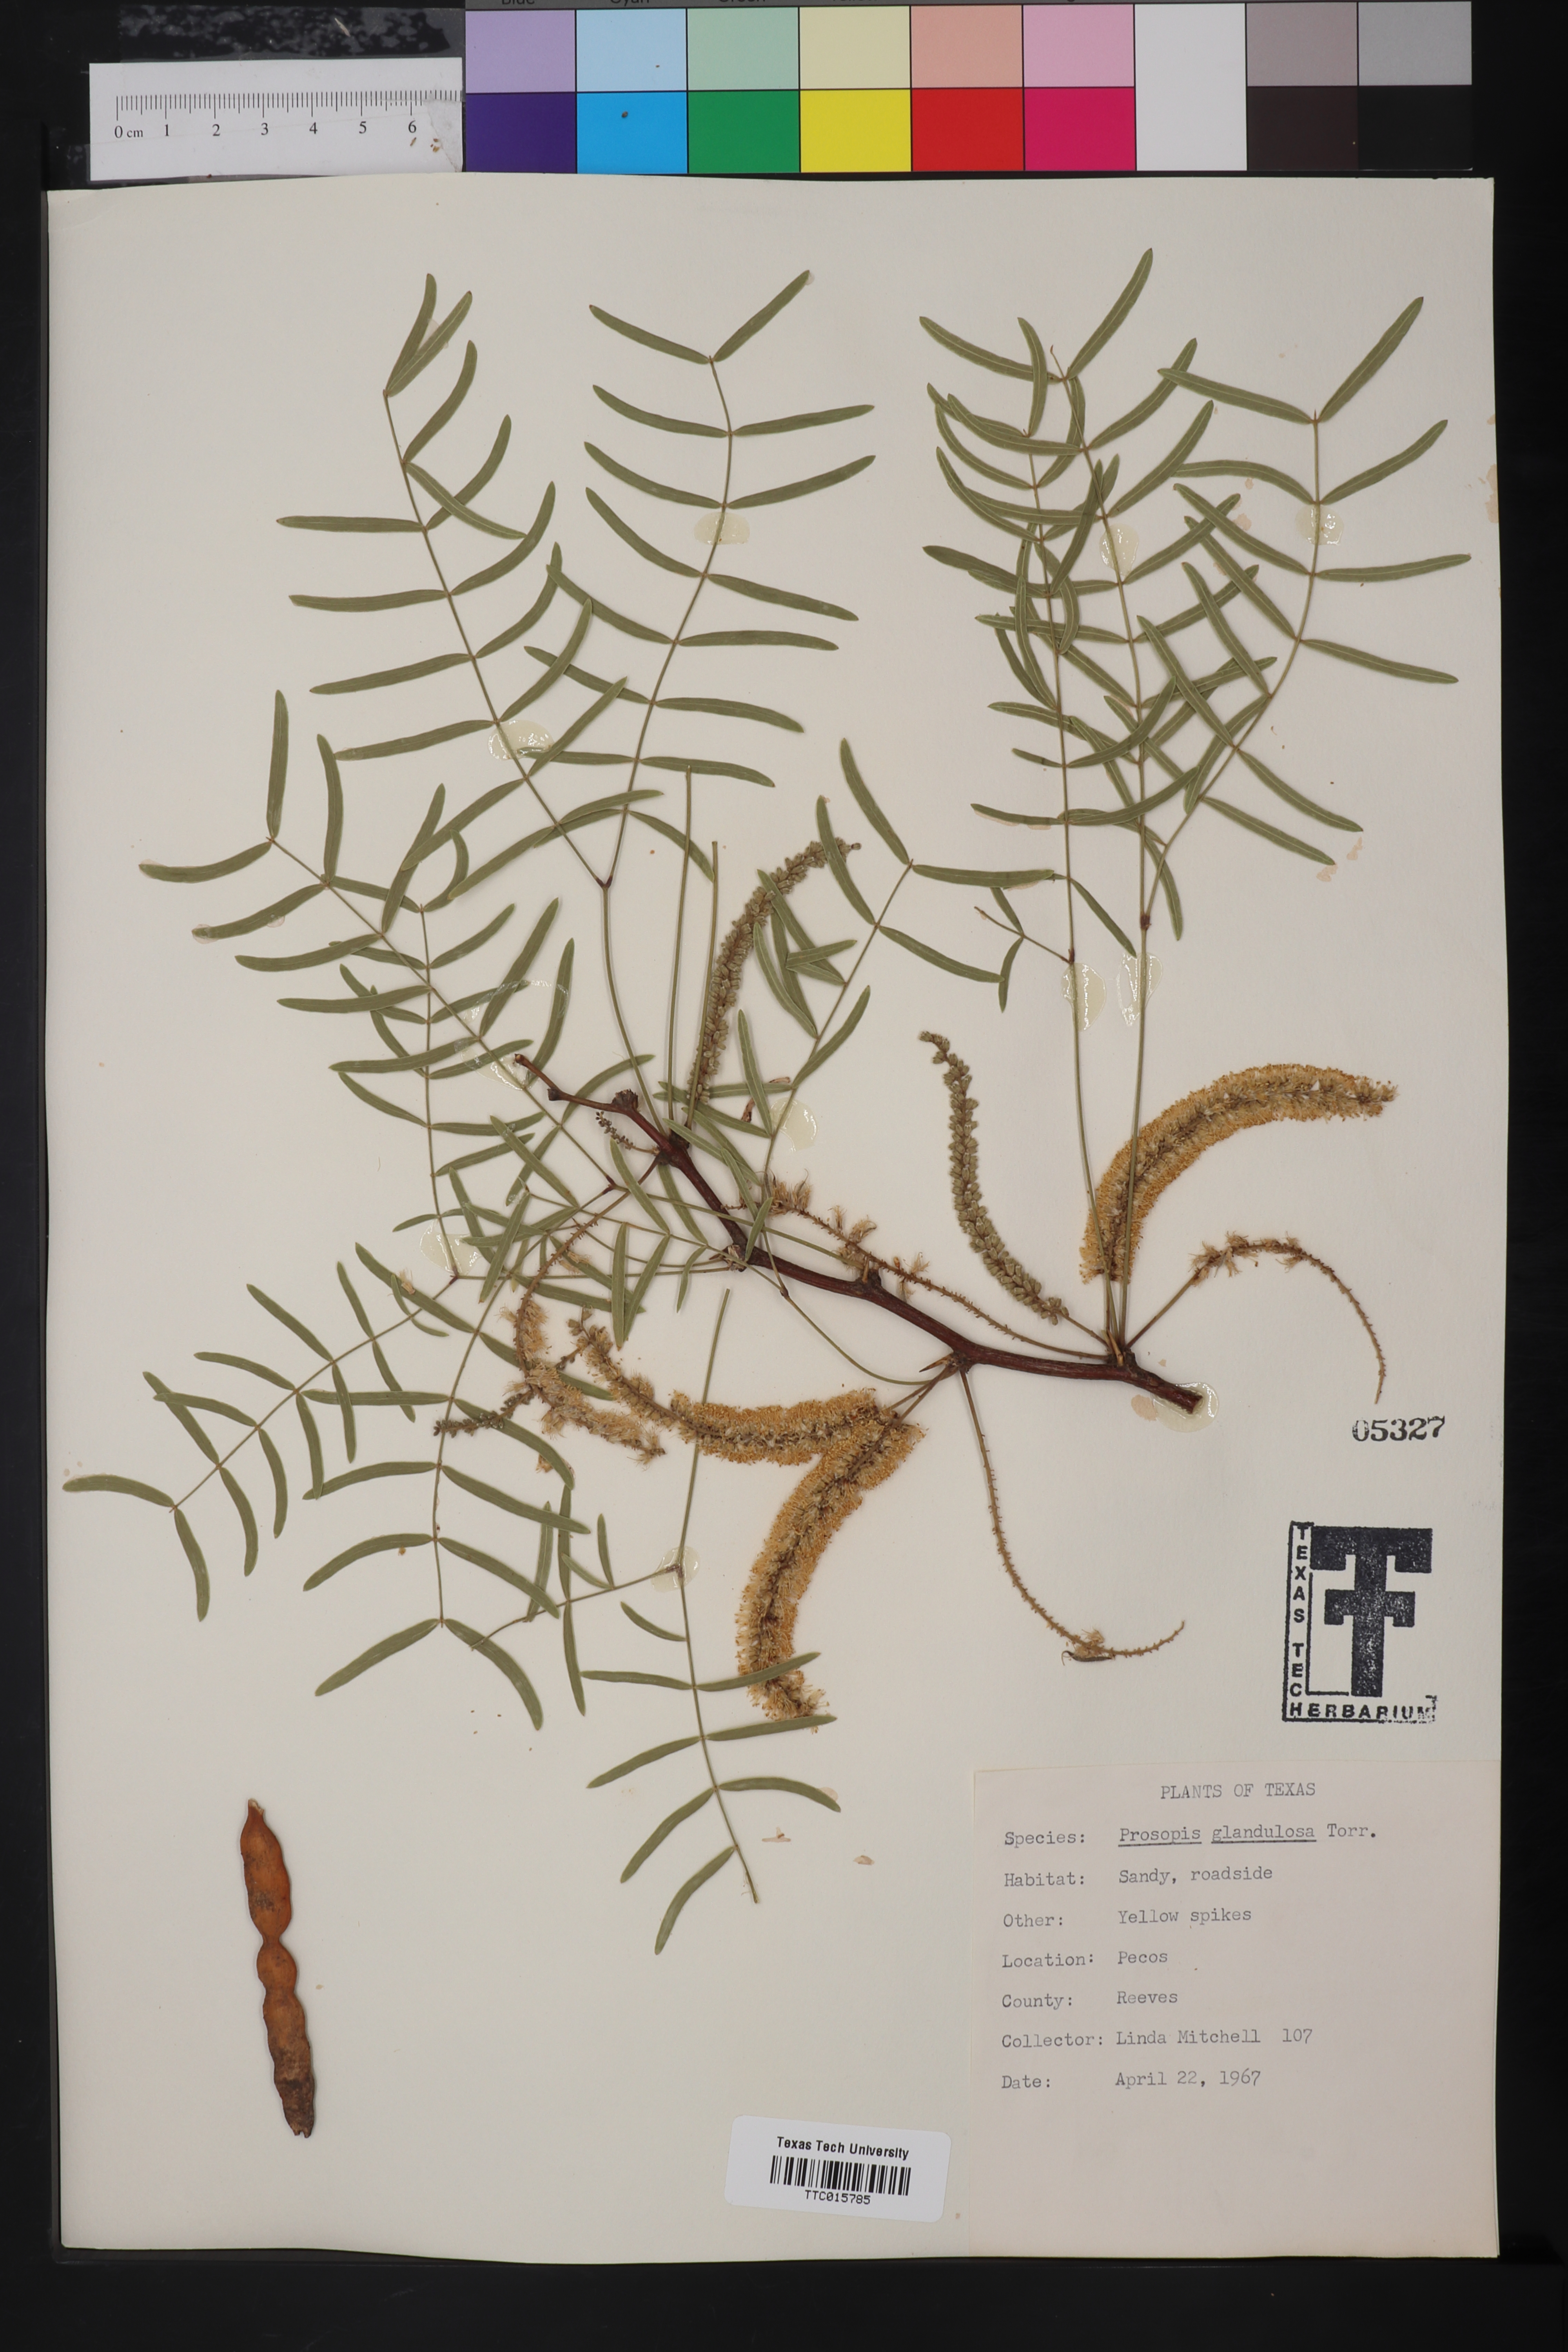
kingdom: Plantae
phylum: Tracheophyta
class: Magnoliopsida
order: Fabales
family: Fabaceae
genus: Prosopis
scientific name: Prosopis glandulosa
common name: Honey mesquite
